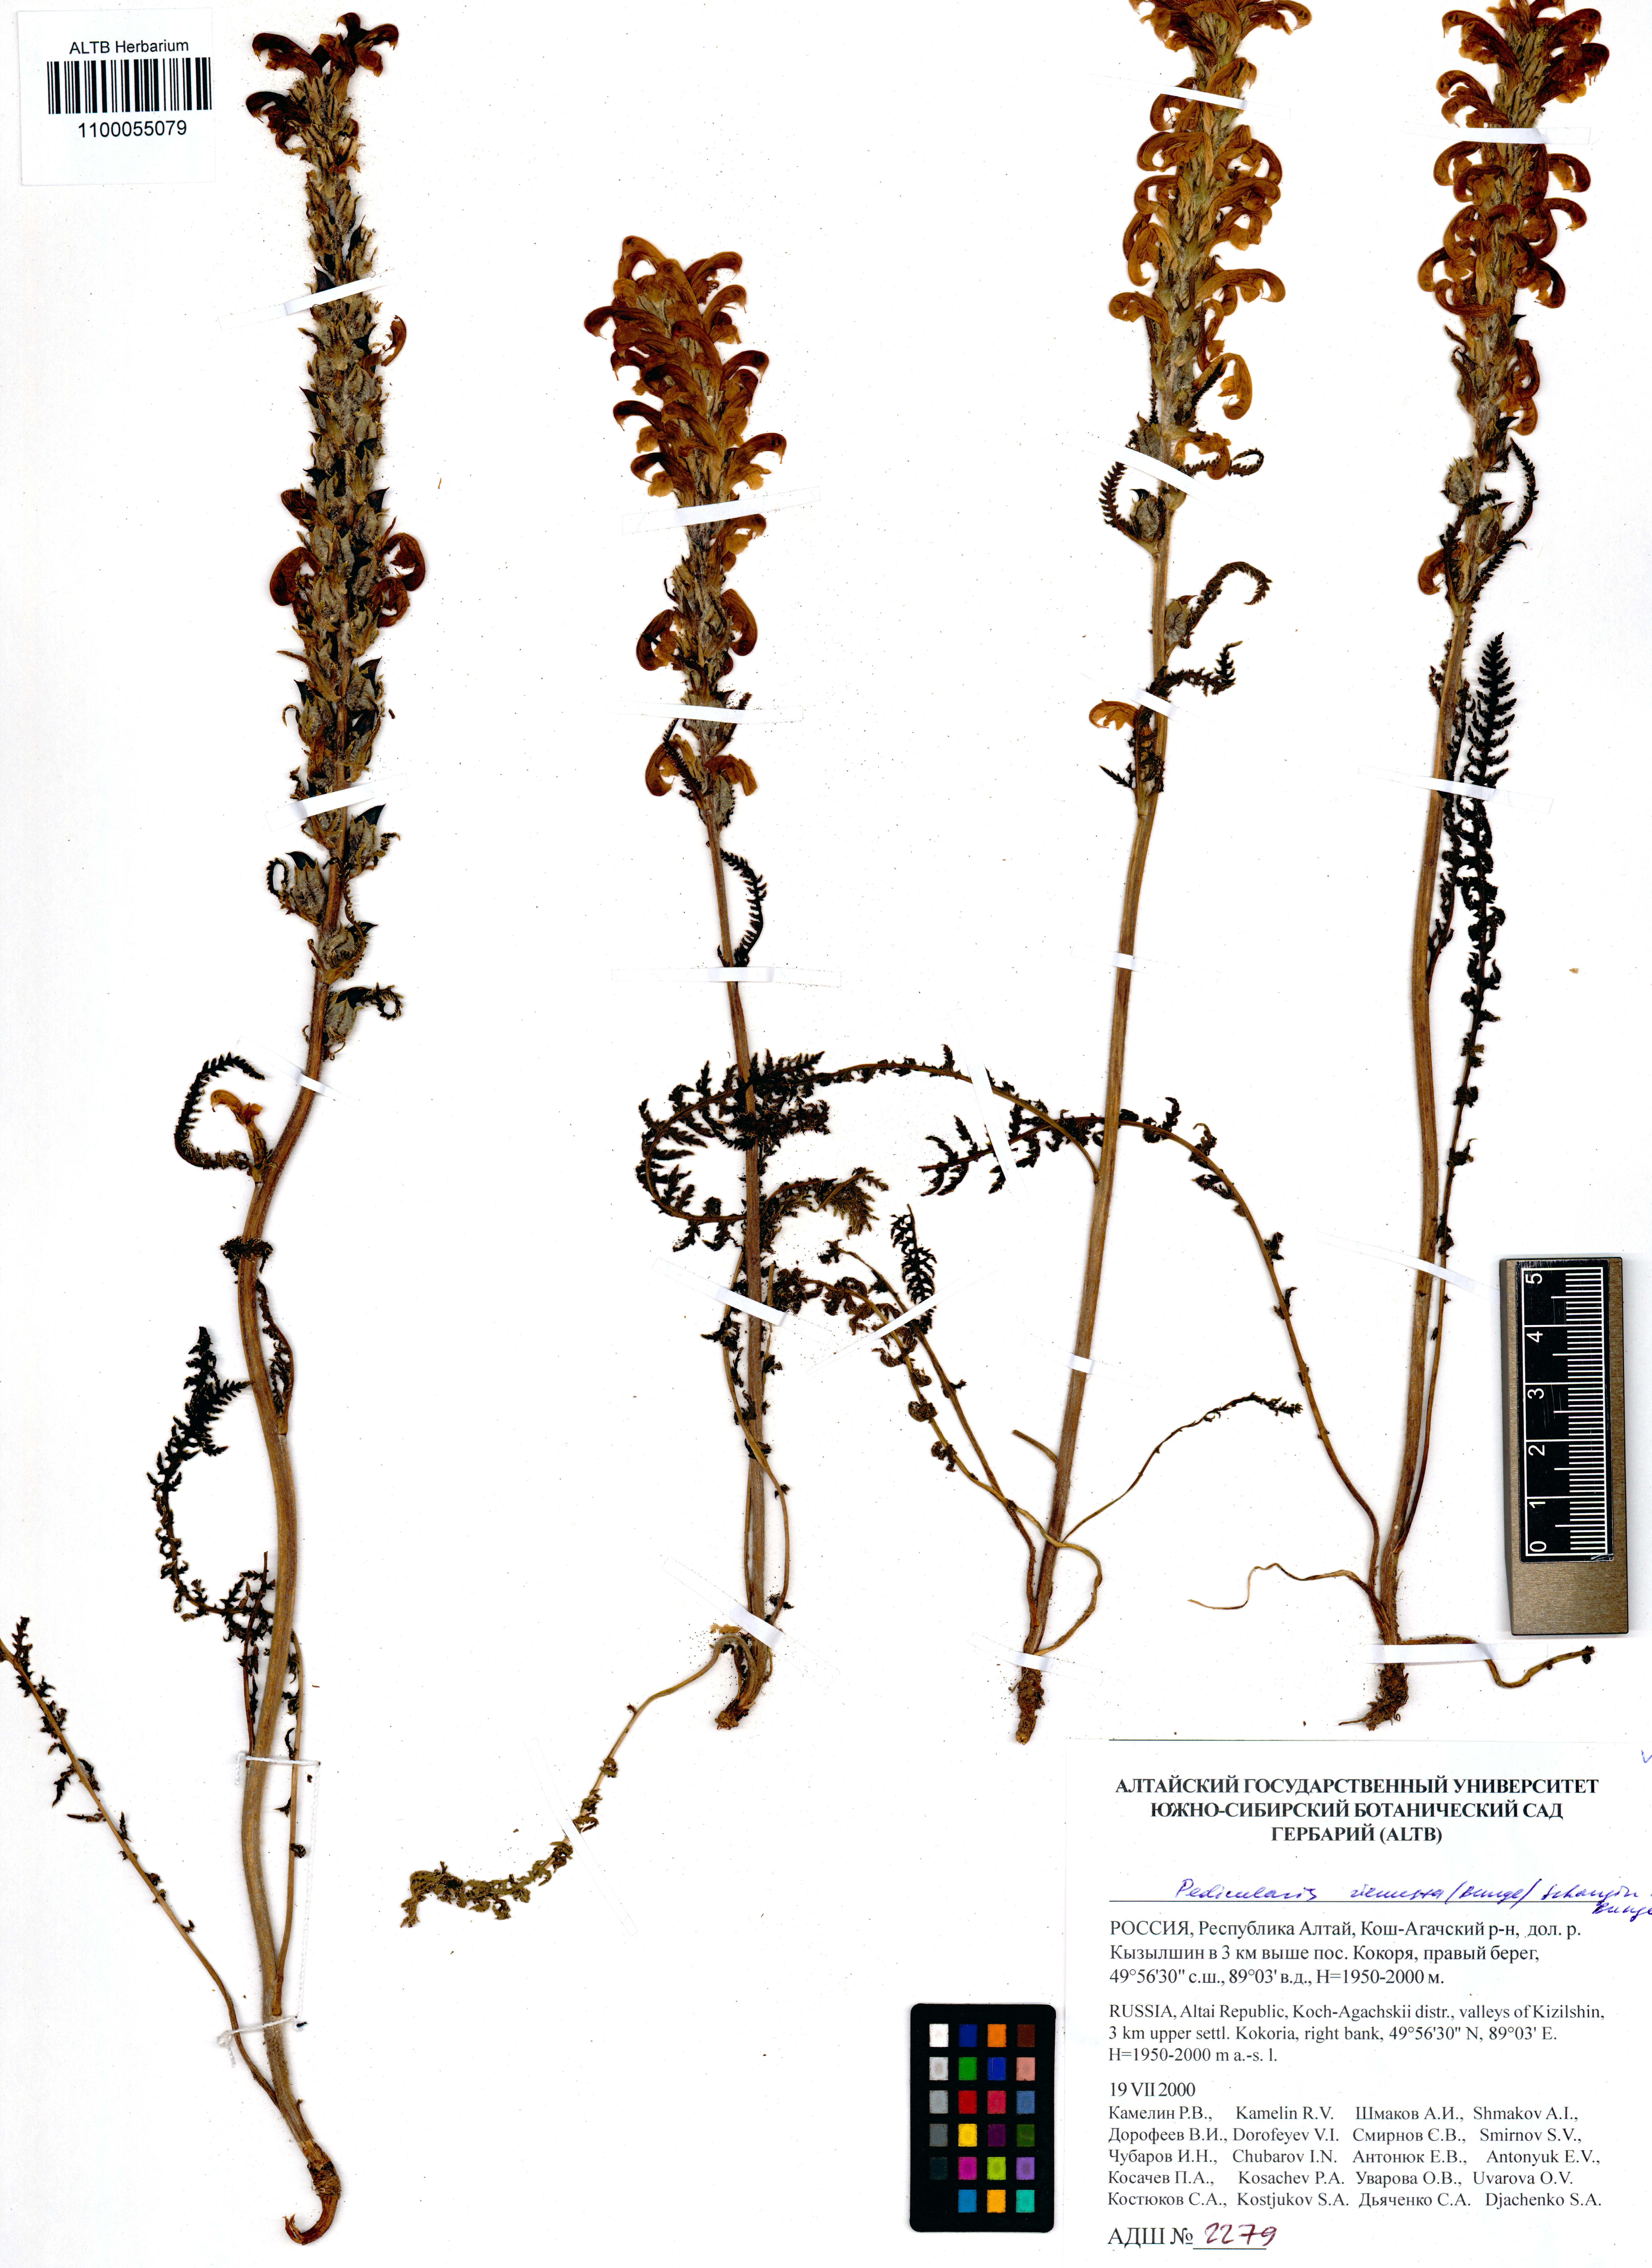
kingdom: Plantae
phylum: Tracheophyta
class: Magnoliopsida
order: Lamiales
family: Orobanchaceae
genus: Pedicularis
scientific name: Pedicularis venusta
